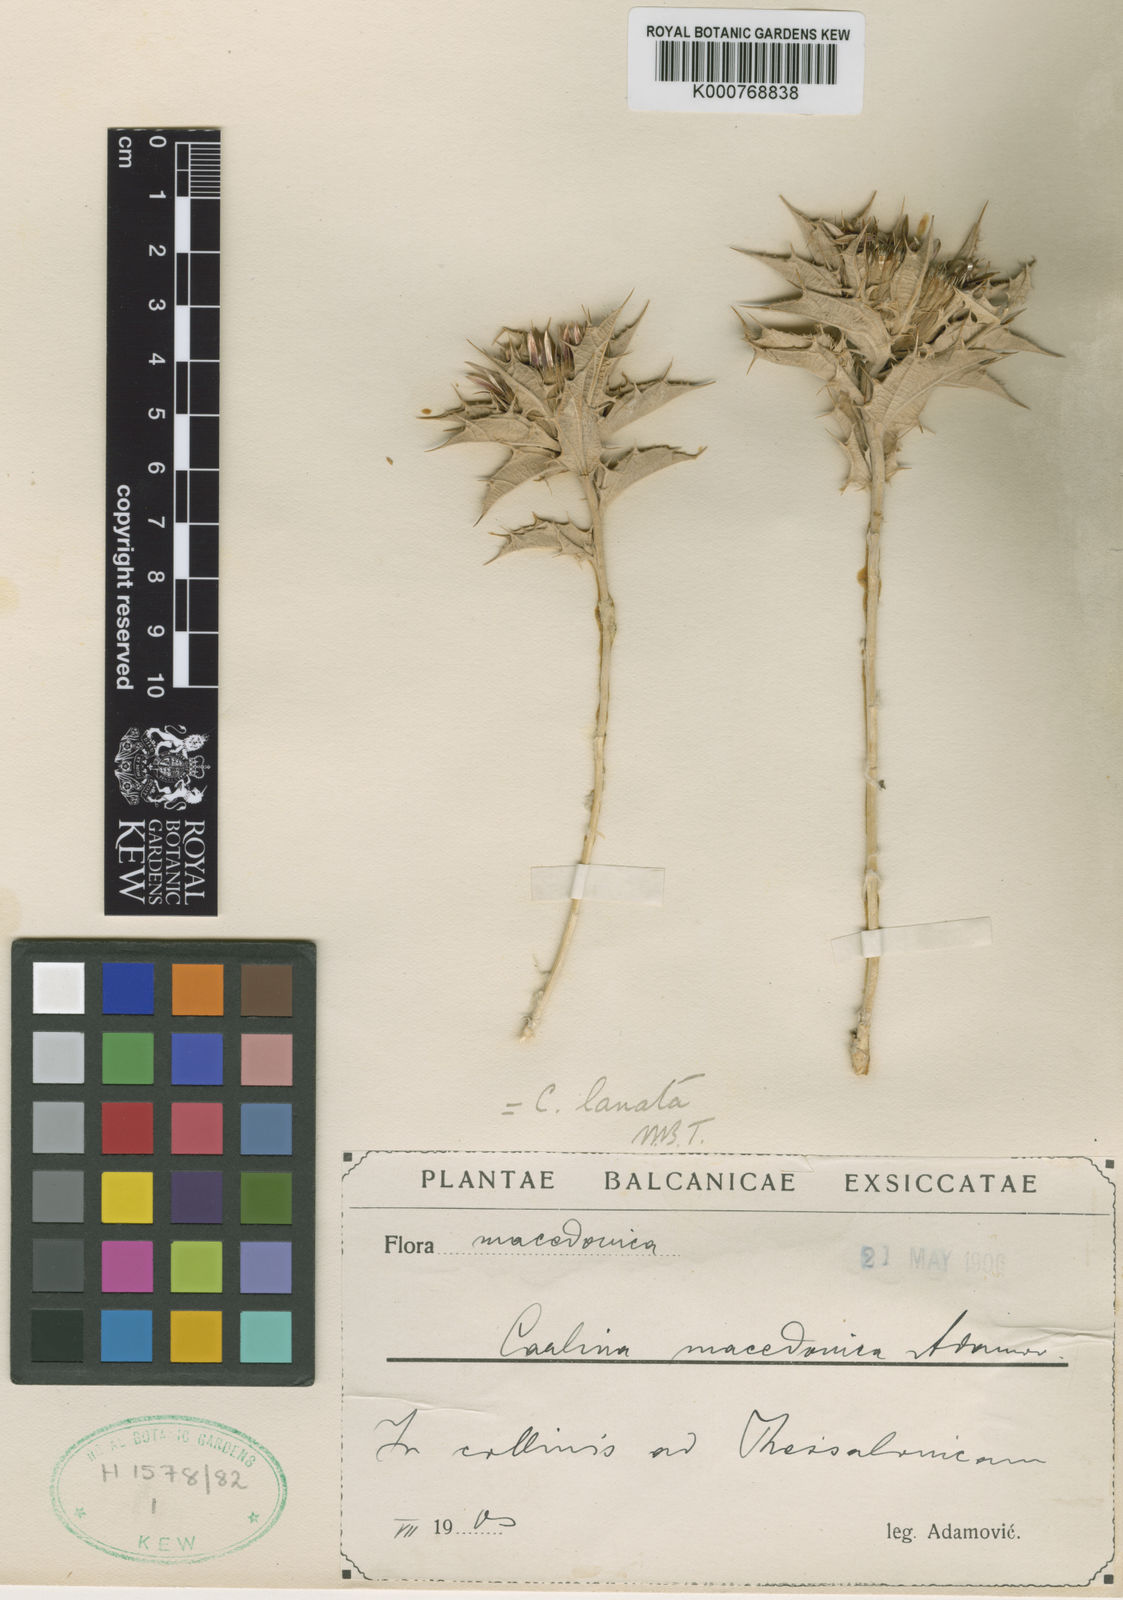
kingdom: Plantae
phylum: Tracheophyta
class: Magnoliopsida
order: Asterales
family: Asteraceae
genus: Carlina
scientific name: Carlina lanata
